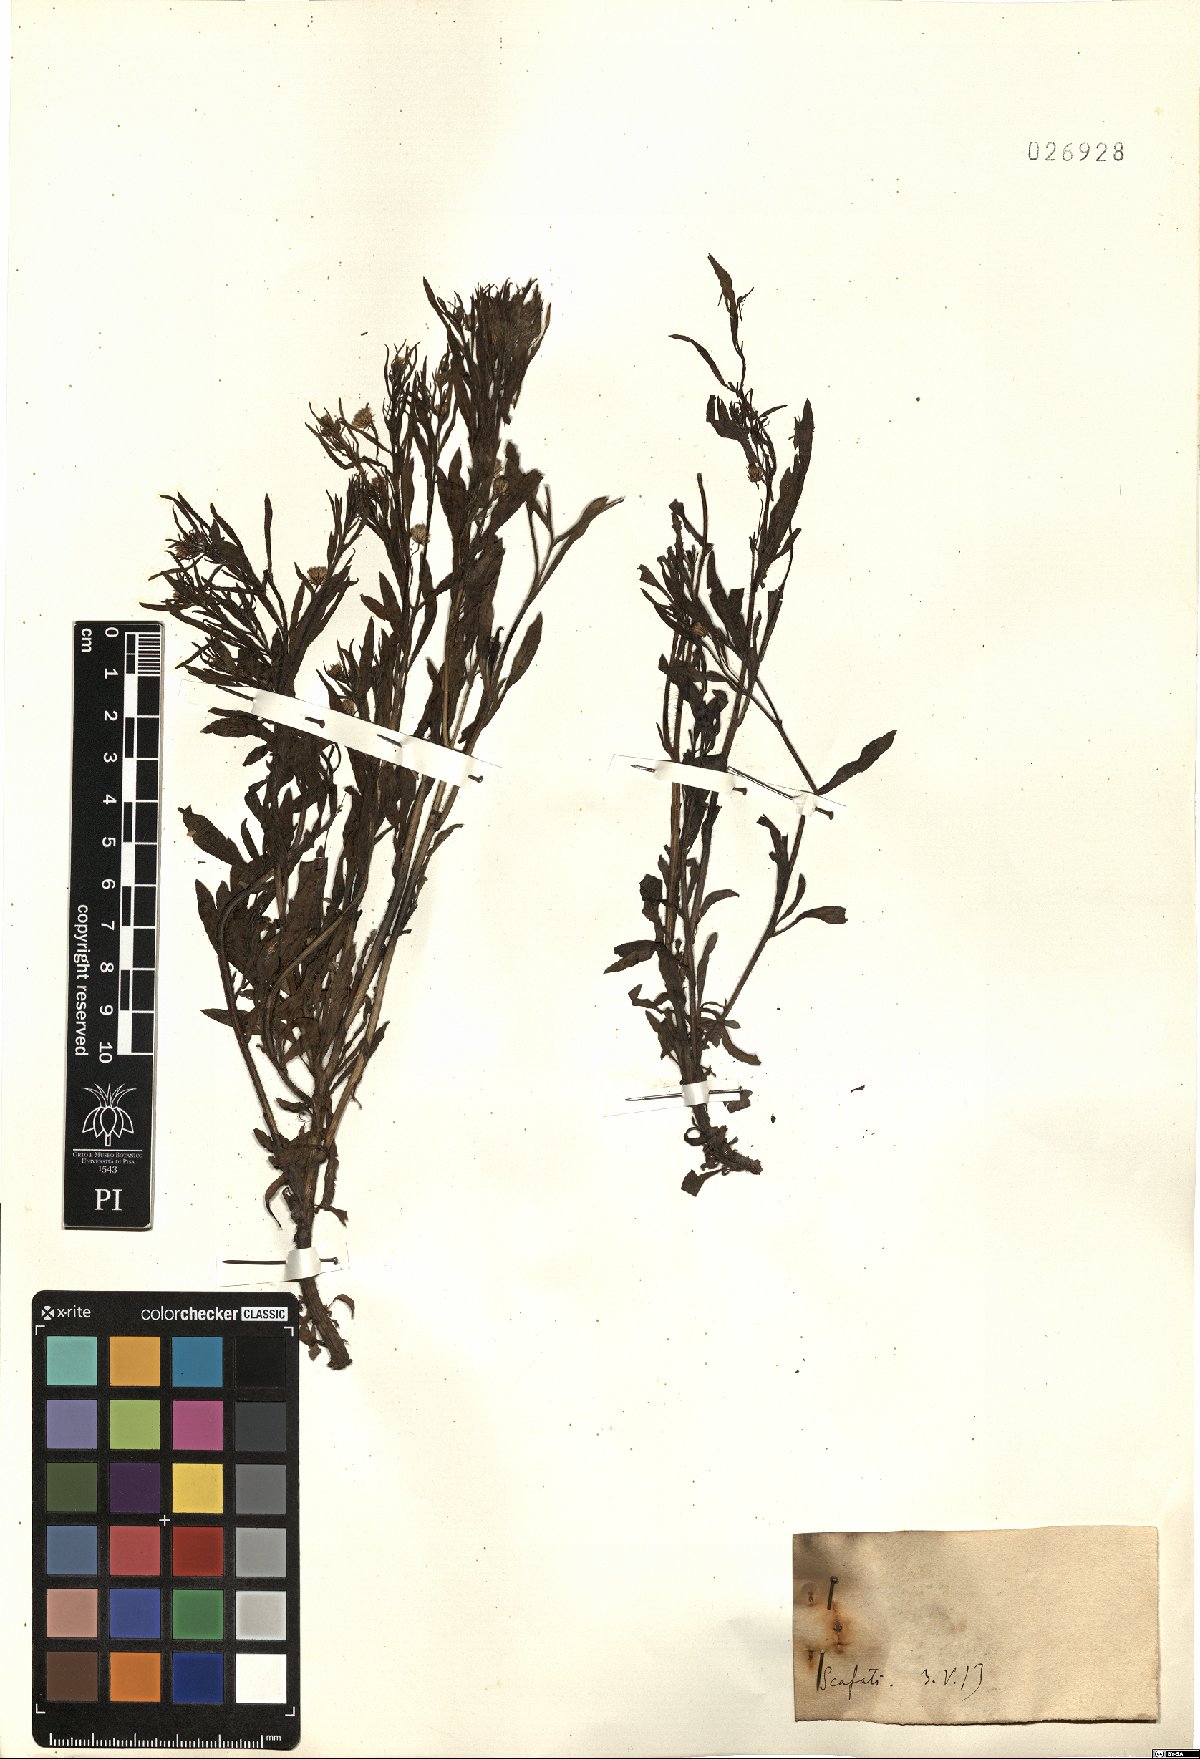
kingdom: Plantae
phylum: Tracheophyta
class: Magnoliopsida
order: Asterales
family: Asteraceae
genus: Erigeron
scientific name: Erigeron
